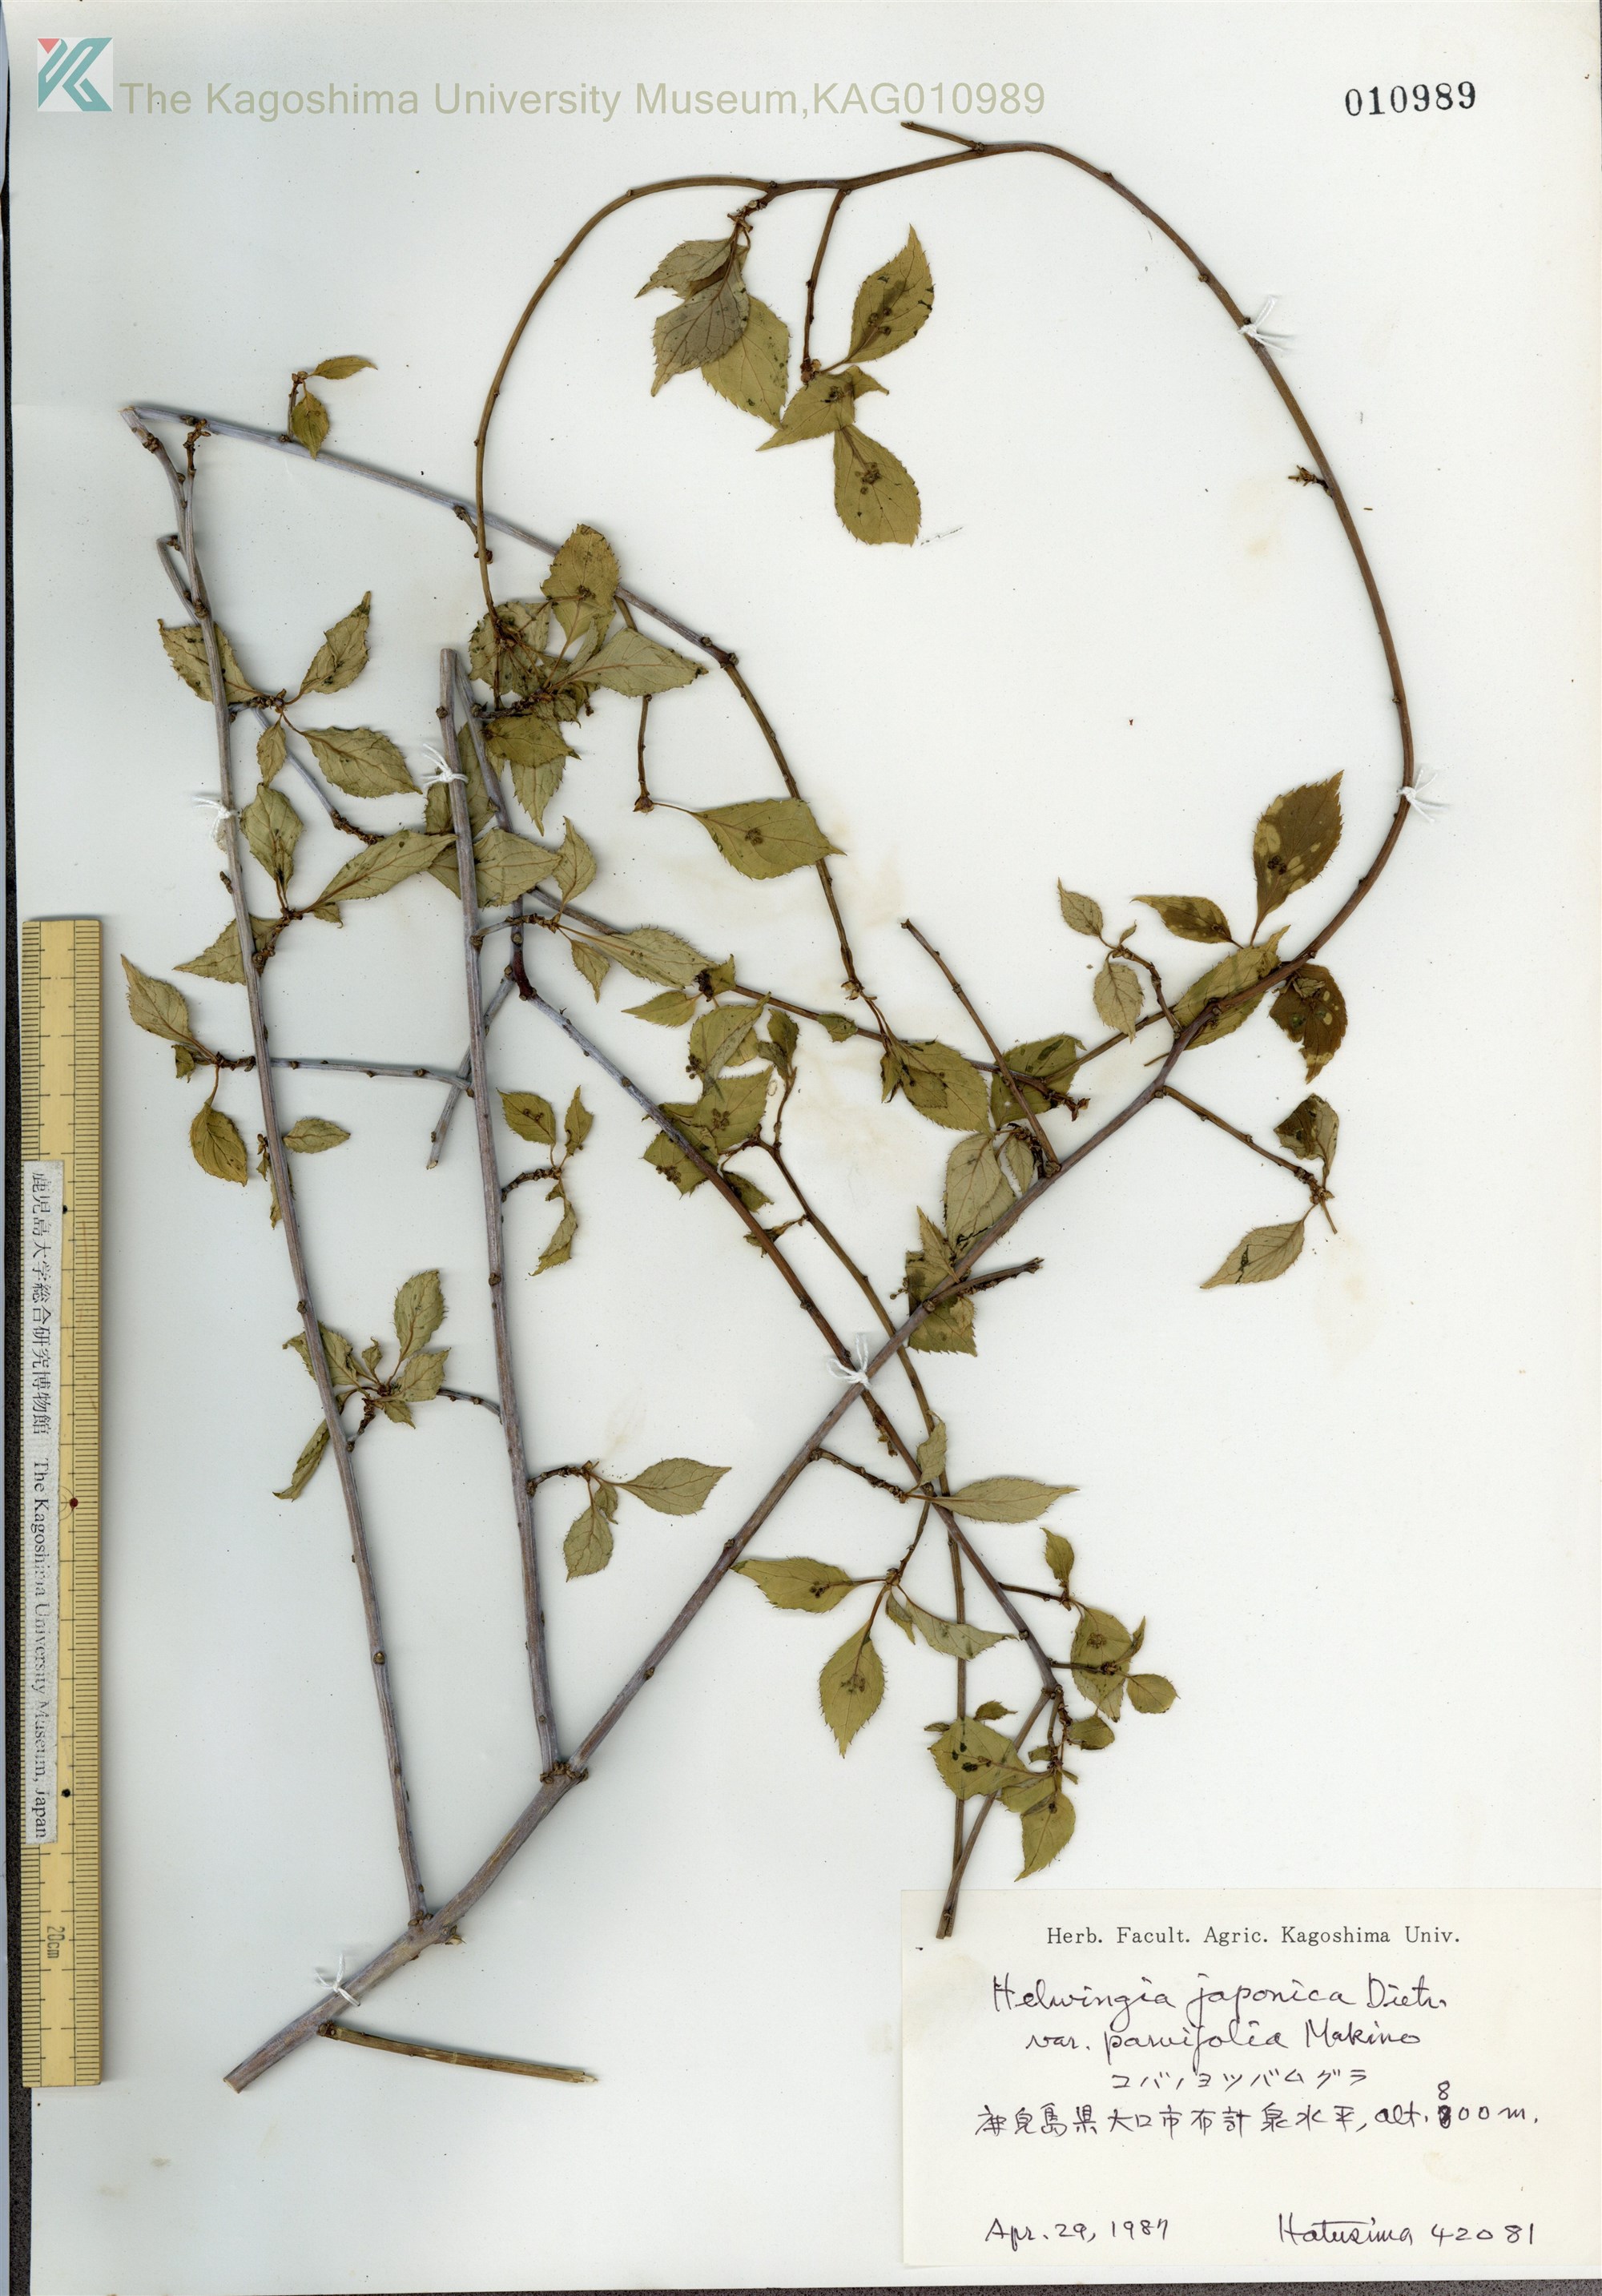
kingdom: Plantae
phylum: Tracheophyta
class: Magnoliopsida
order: Aquifoliales
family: Helwingiaceae
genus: Helwingia
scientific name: Helwingia japonica
